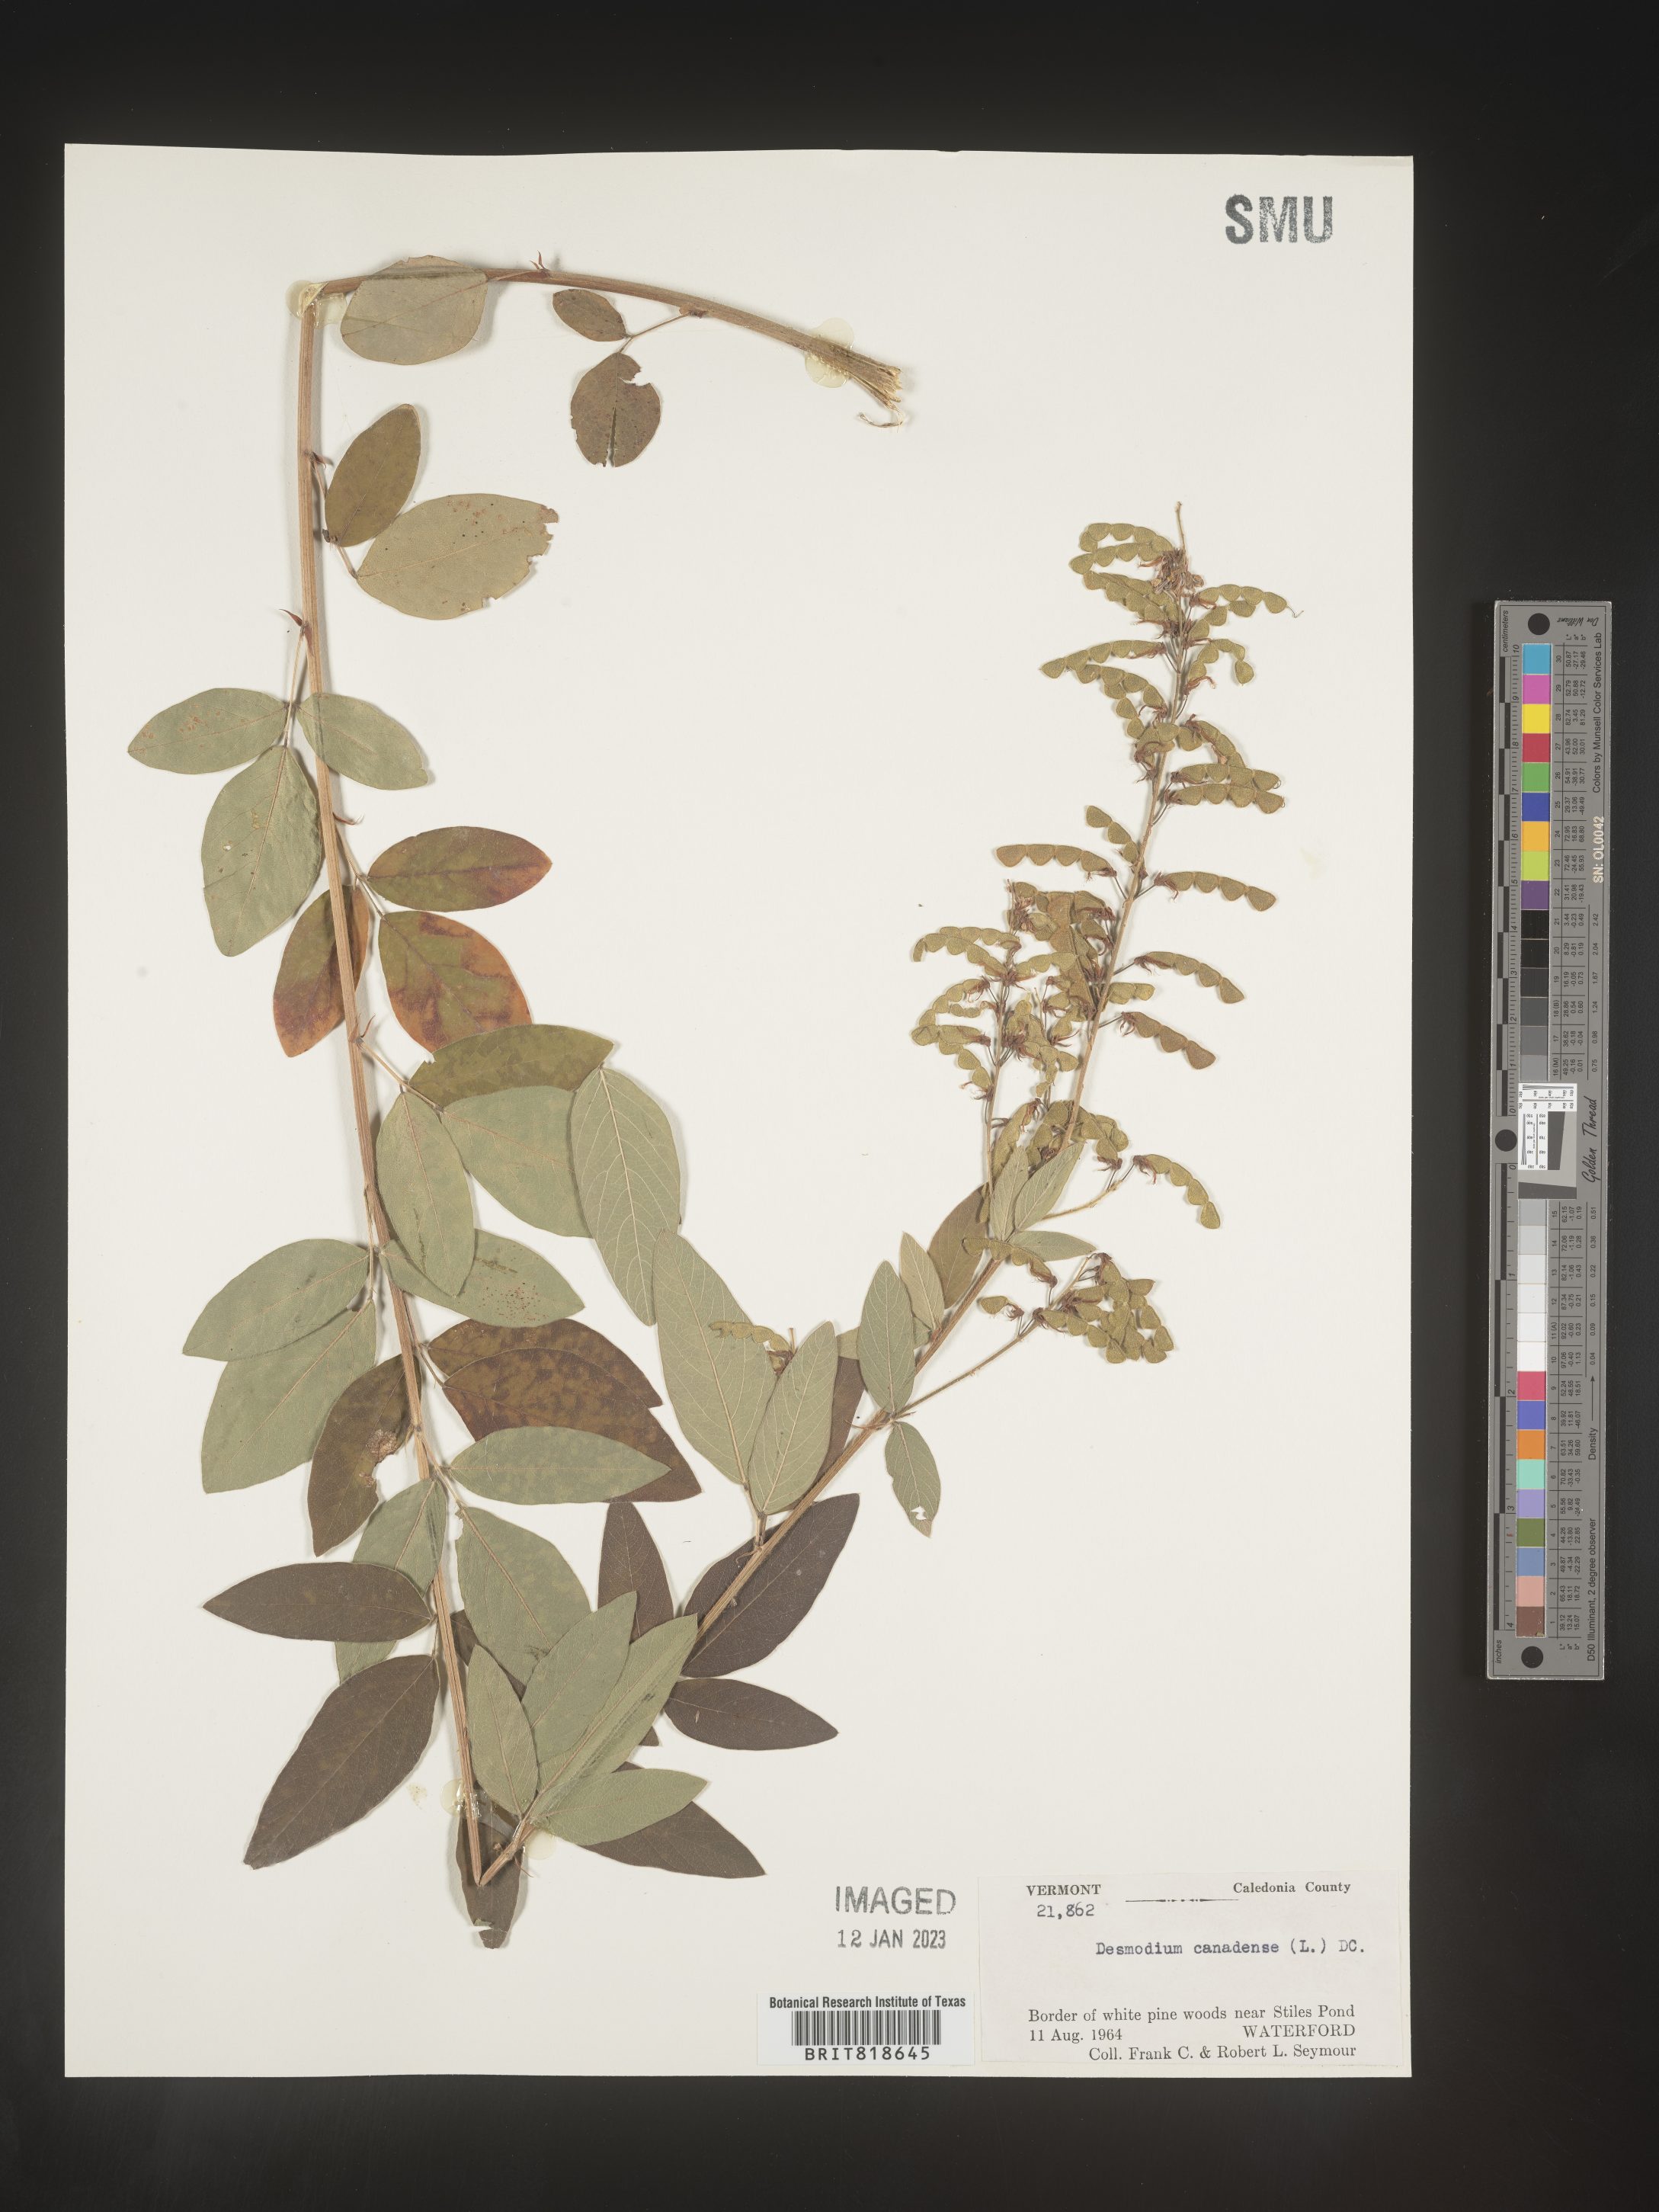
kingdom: Plantae
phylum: Tracheophyta
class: Magnoliopsida
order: Fabales
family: Fabaceae
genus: Desmodium
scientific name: Desmodium canadense
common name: Canada tick-trefoil
